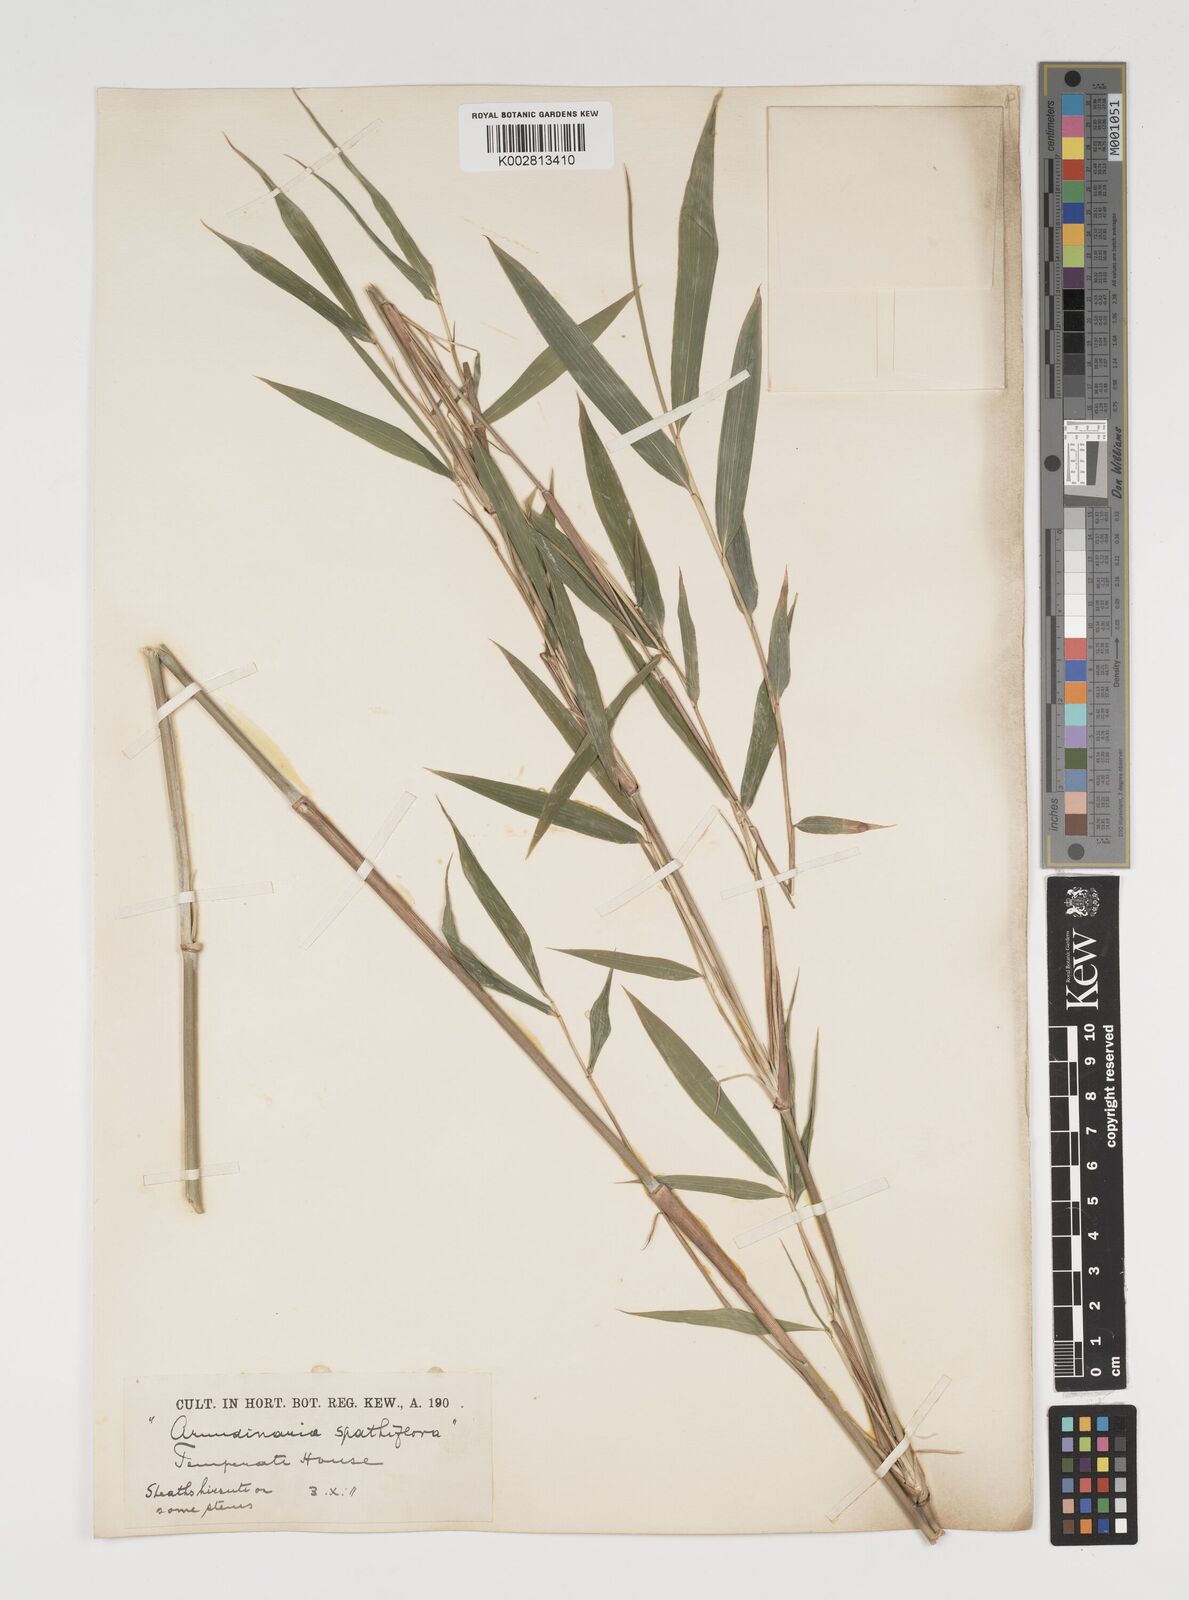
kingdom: Plantae
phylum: Tracheophyta
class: Liliopsida
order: Poales
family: Poaceae
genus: Thamnocalamus
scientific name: Thamnocalamus spathiflorus
